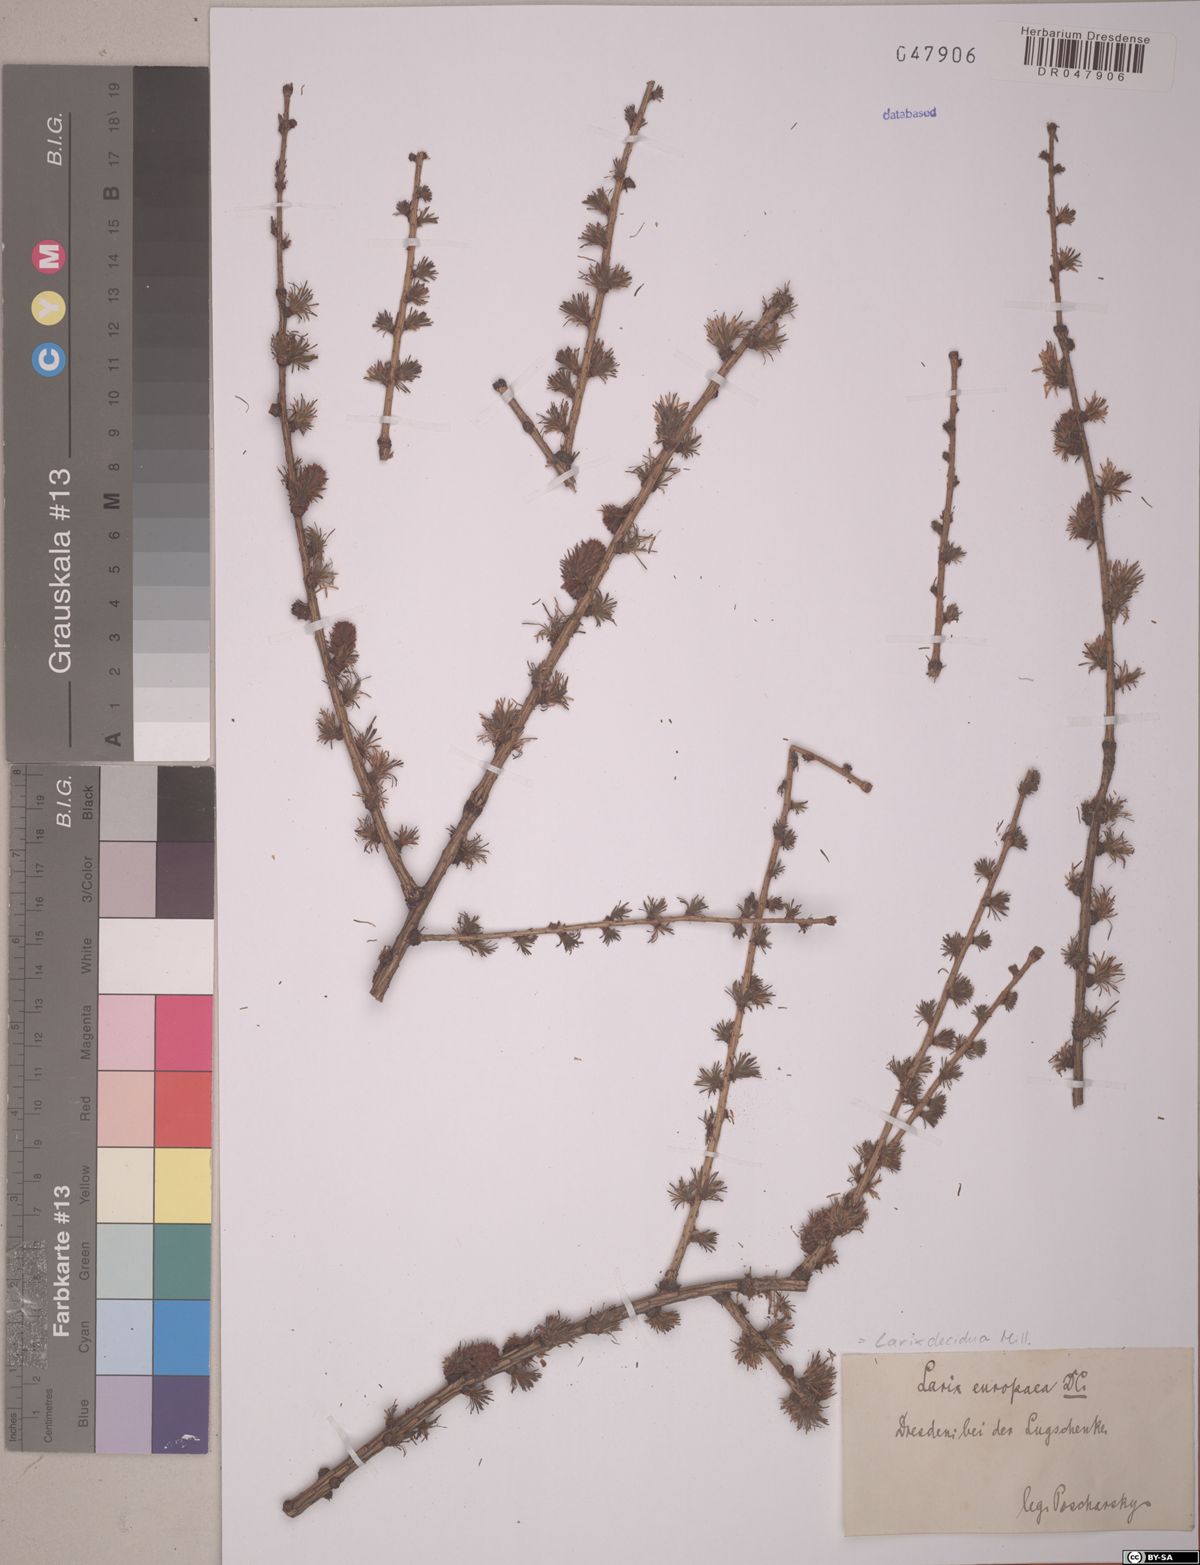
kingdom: Plantae
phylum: Tracheophyta
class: Pinopsida
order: Pinales
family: Pinaceae
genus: Larix
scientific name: Larix decidua
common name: European larch
